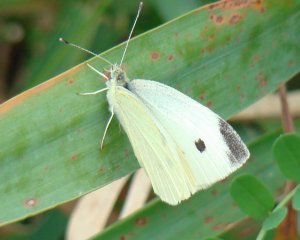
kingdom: Animalia
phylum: Arthropoda
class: Insecta
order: Lepidoptera
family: Pieridae
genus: Pieris
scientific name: Pieris rapae
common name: Cabbage White
